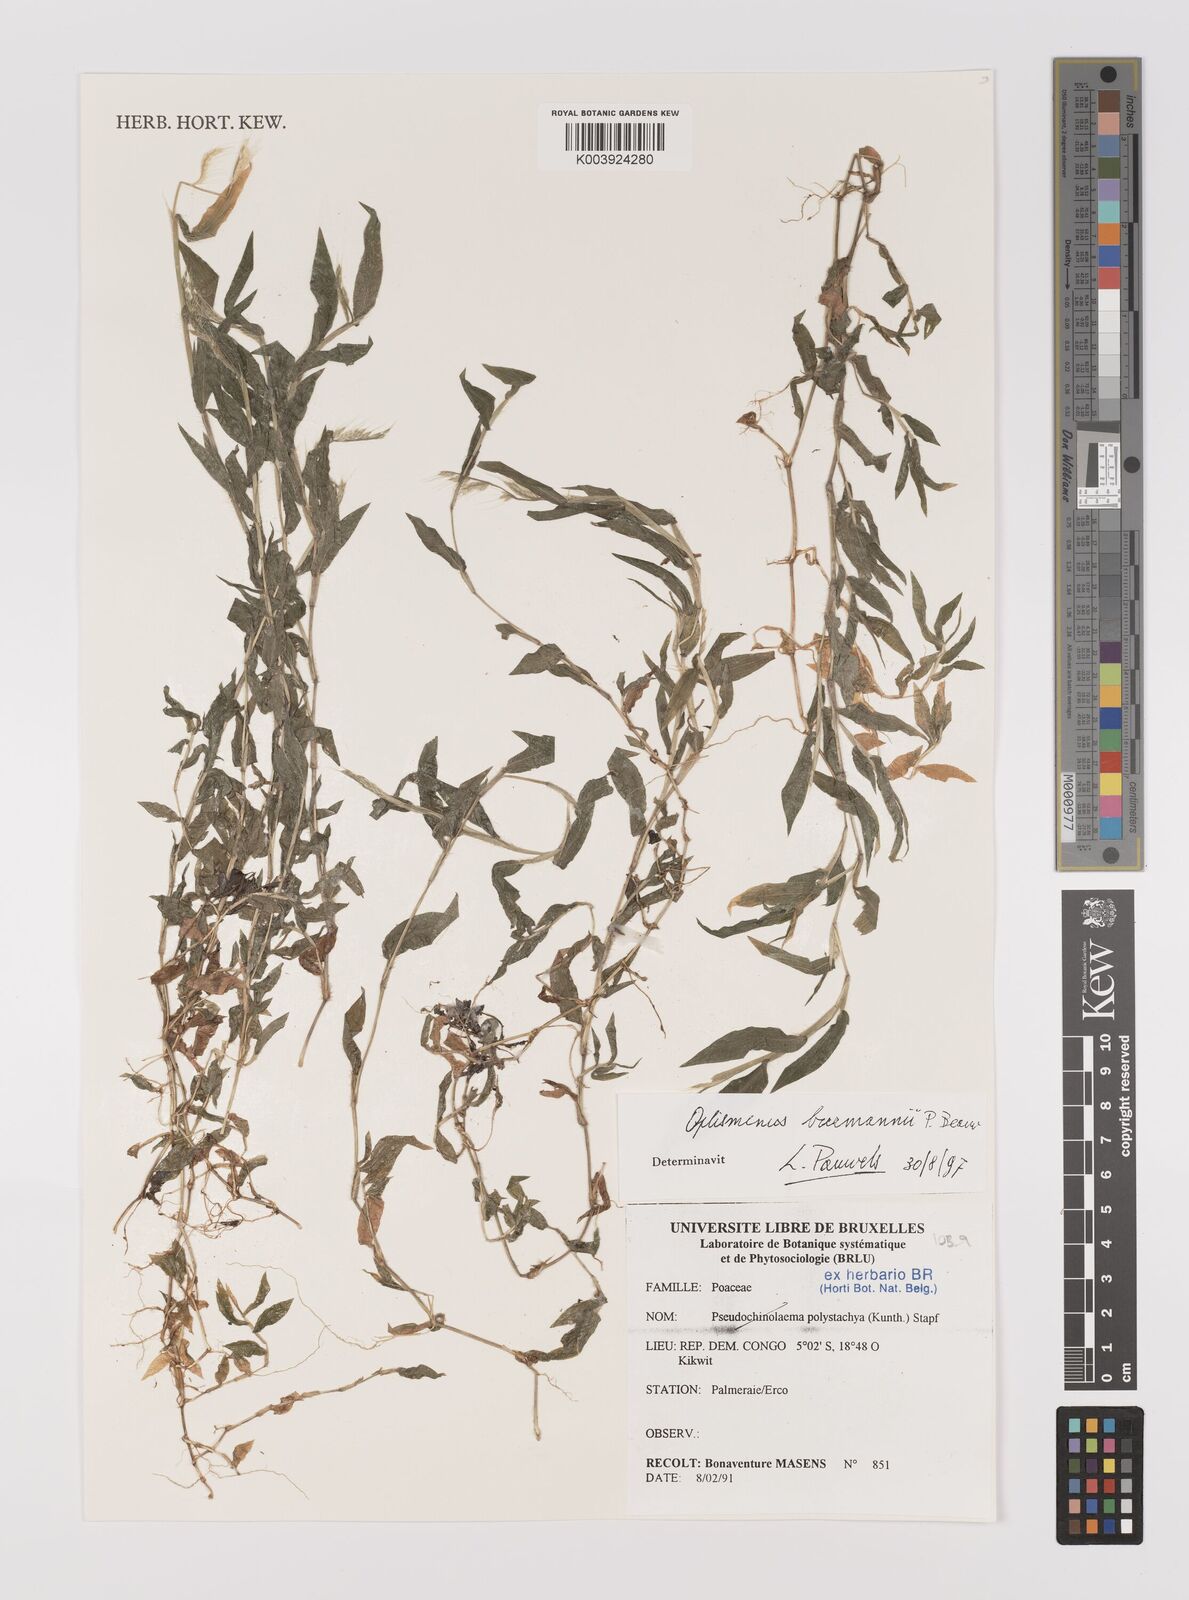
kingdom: Plantae
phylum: Tracheophyta
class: Liliopsida
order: Poales
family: Poaceae
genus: Oplismenus
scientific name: Oplismenus burmanni
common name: Burmann's basketgrass
